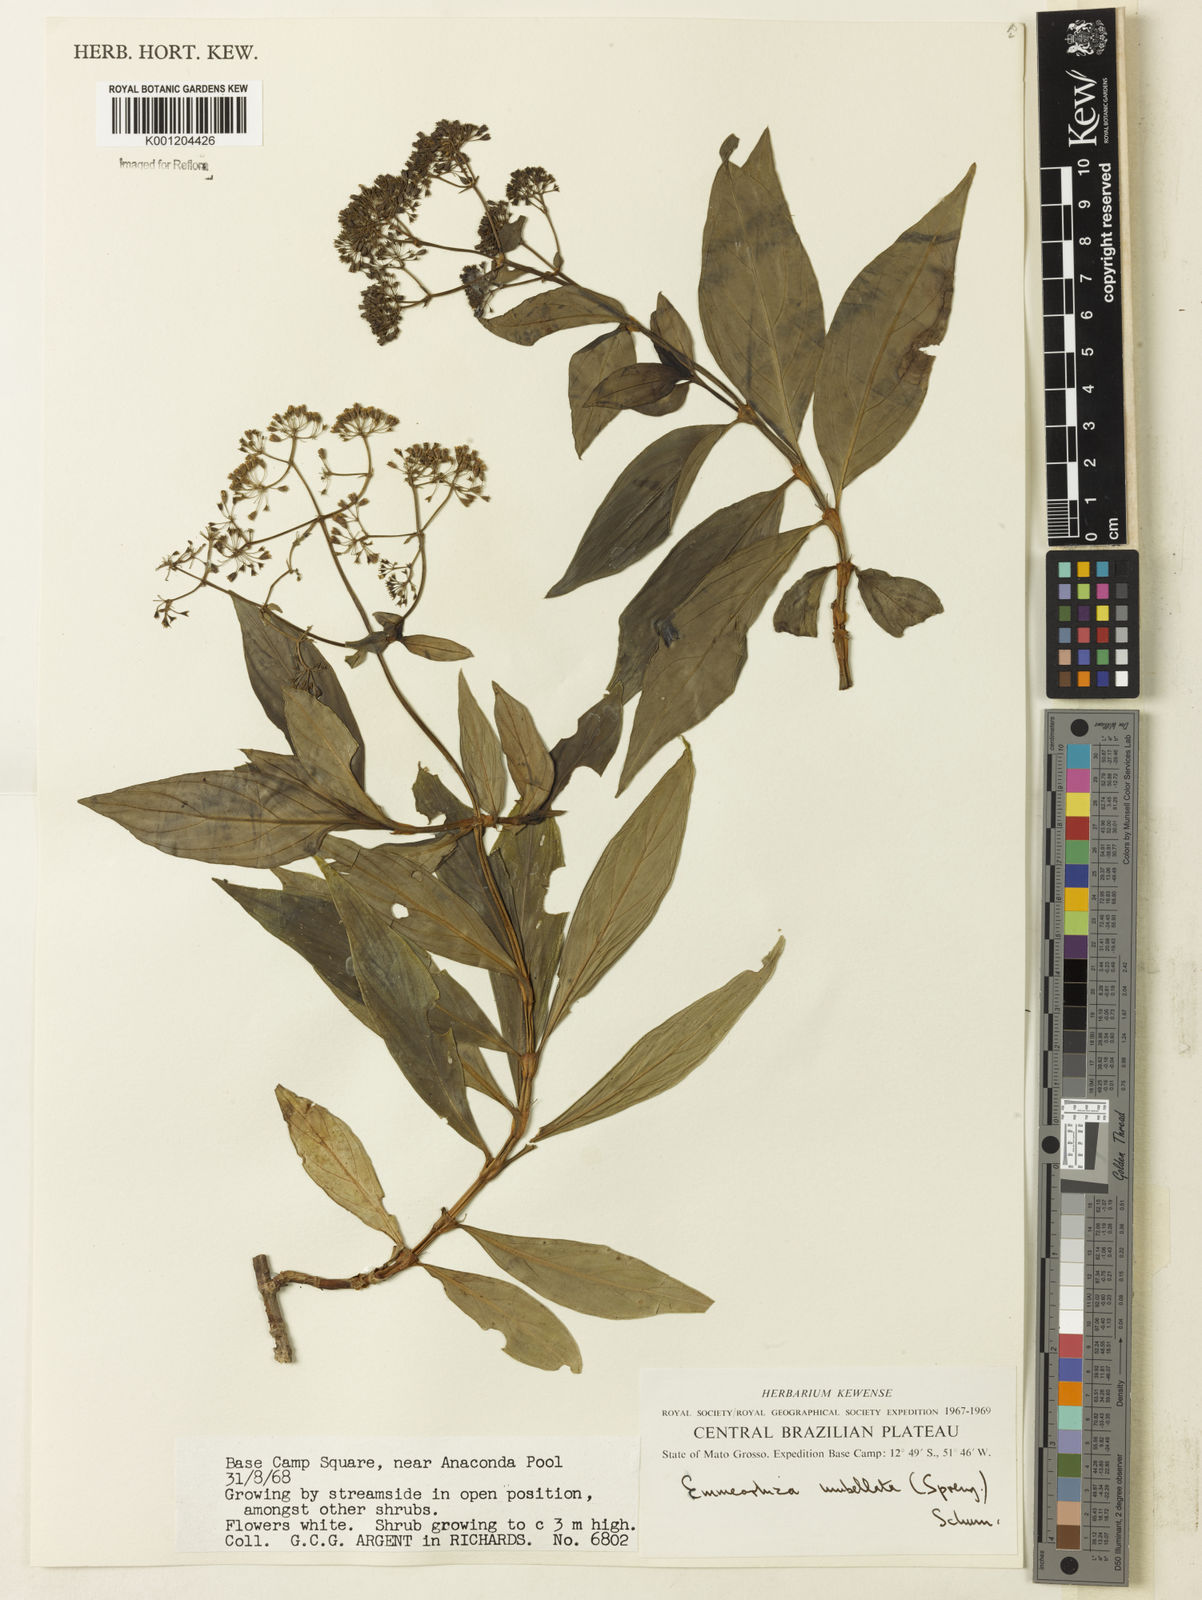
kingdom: Plantae
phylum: Tracheophyta
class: Magnoliopsida
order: Gentianales
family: Rubiaceae
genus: Emmeorhiza
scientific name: Emmeorhiza umbellata
